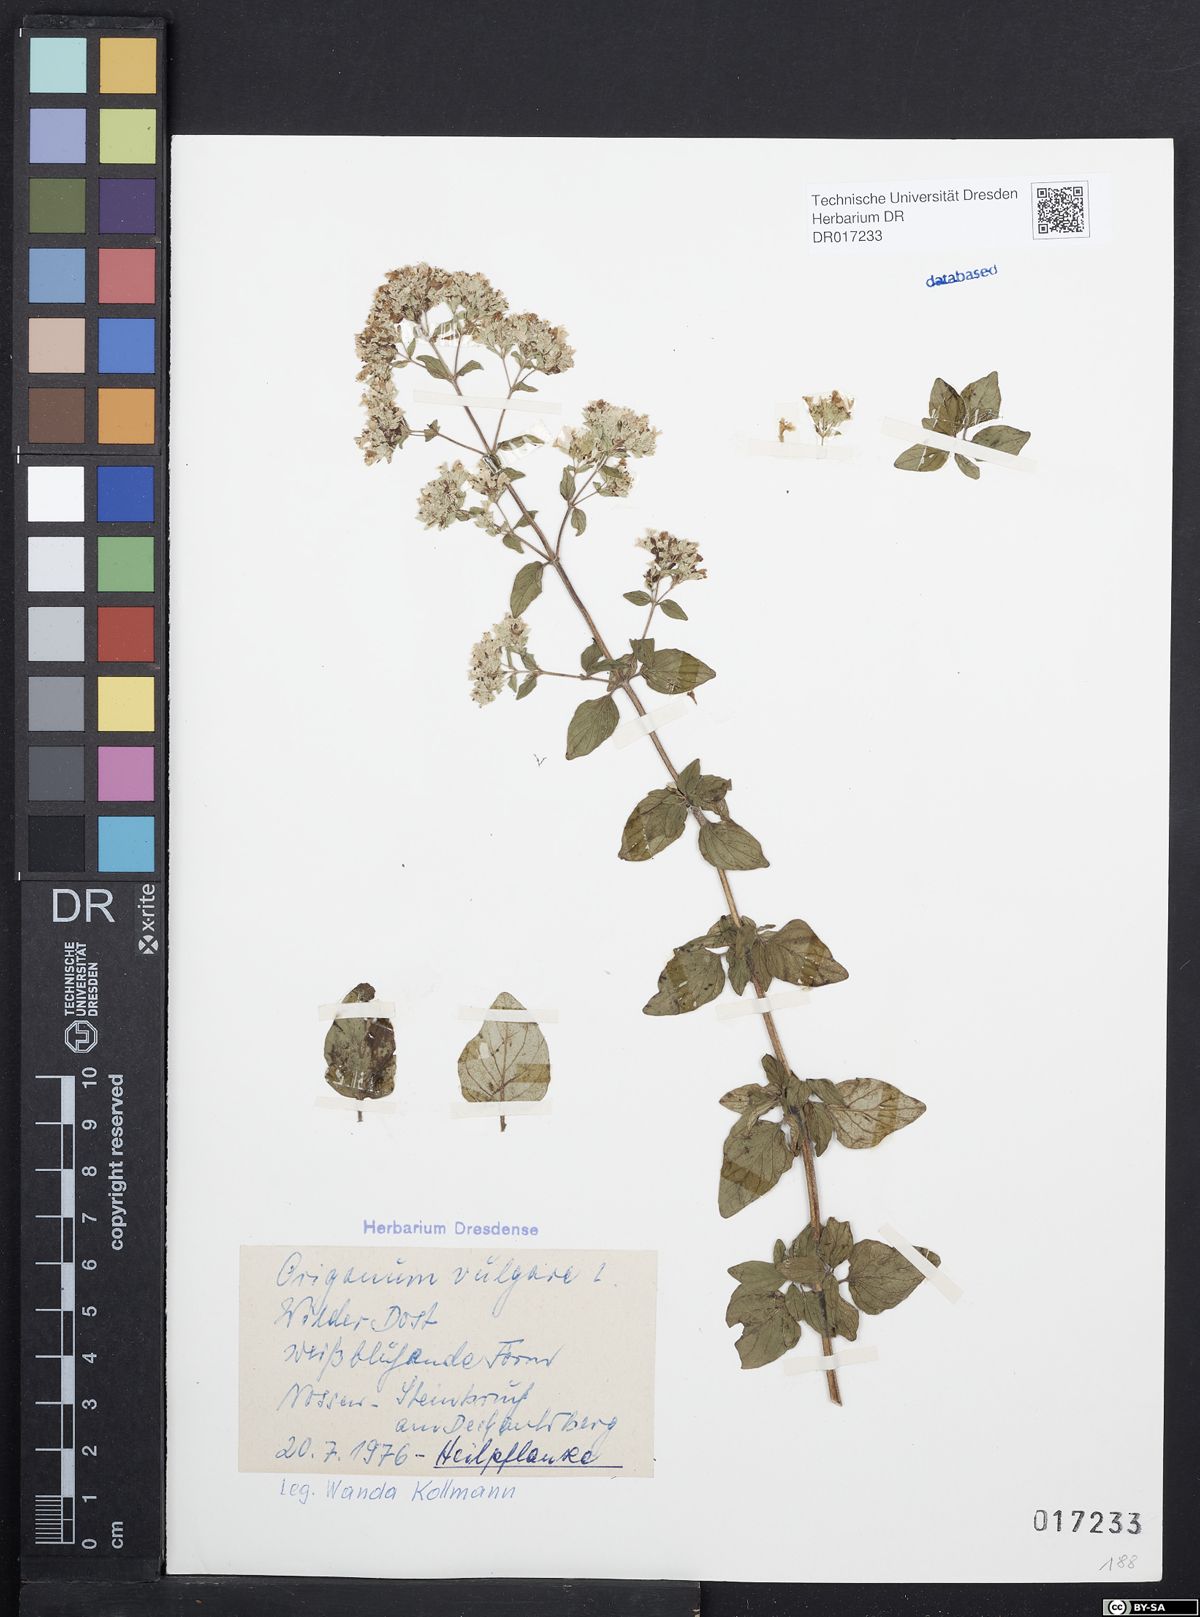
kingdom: Plantae
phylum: Tracheophyta
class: Magnoliopsida
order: Lamiales
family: Lamiaceae
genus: Origanum
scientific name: Origanum vulgare
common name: Wild marjoram
